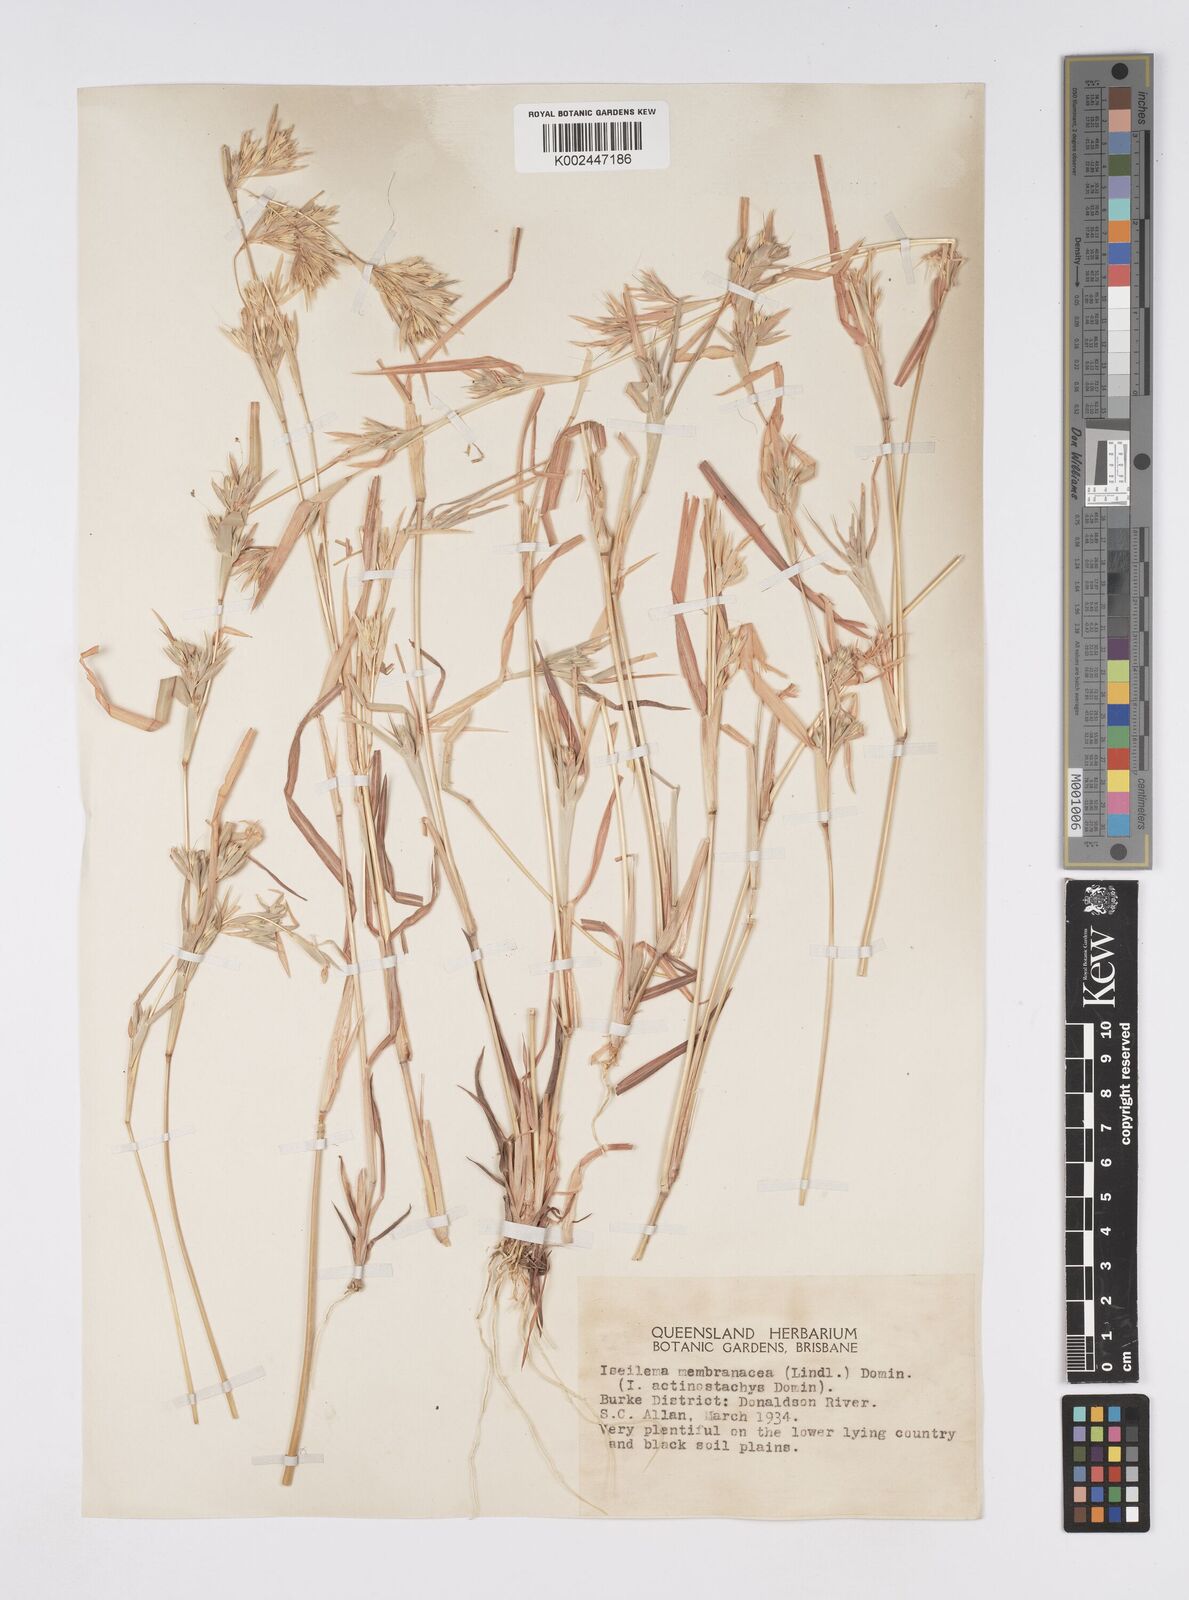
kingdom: Plantae
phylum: Tracheophyta
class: Liliopsida
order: Poales
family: Poaceae
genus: Iseilema
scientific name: Iseilema membranaceum
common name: Small flinders grass
